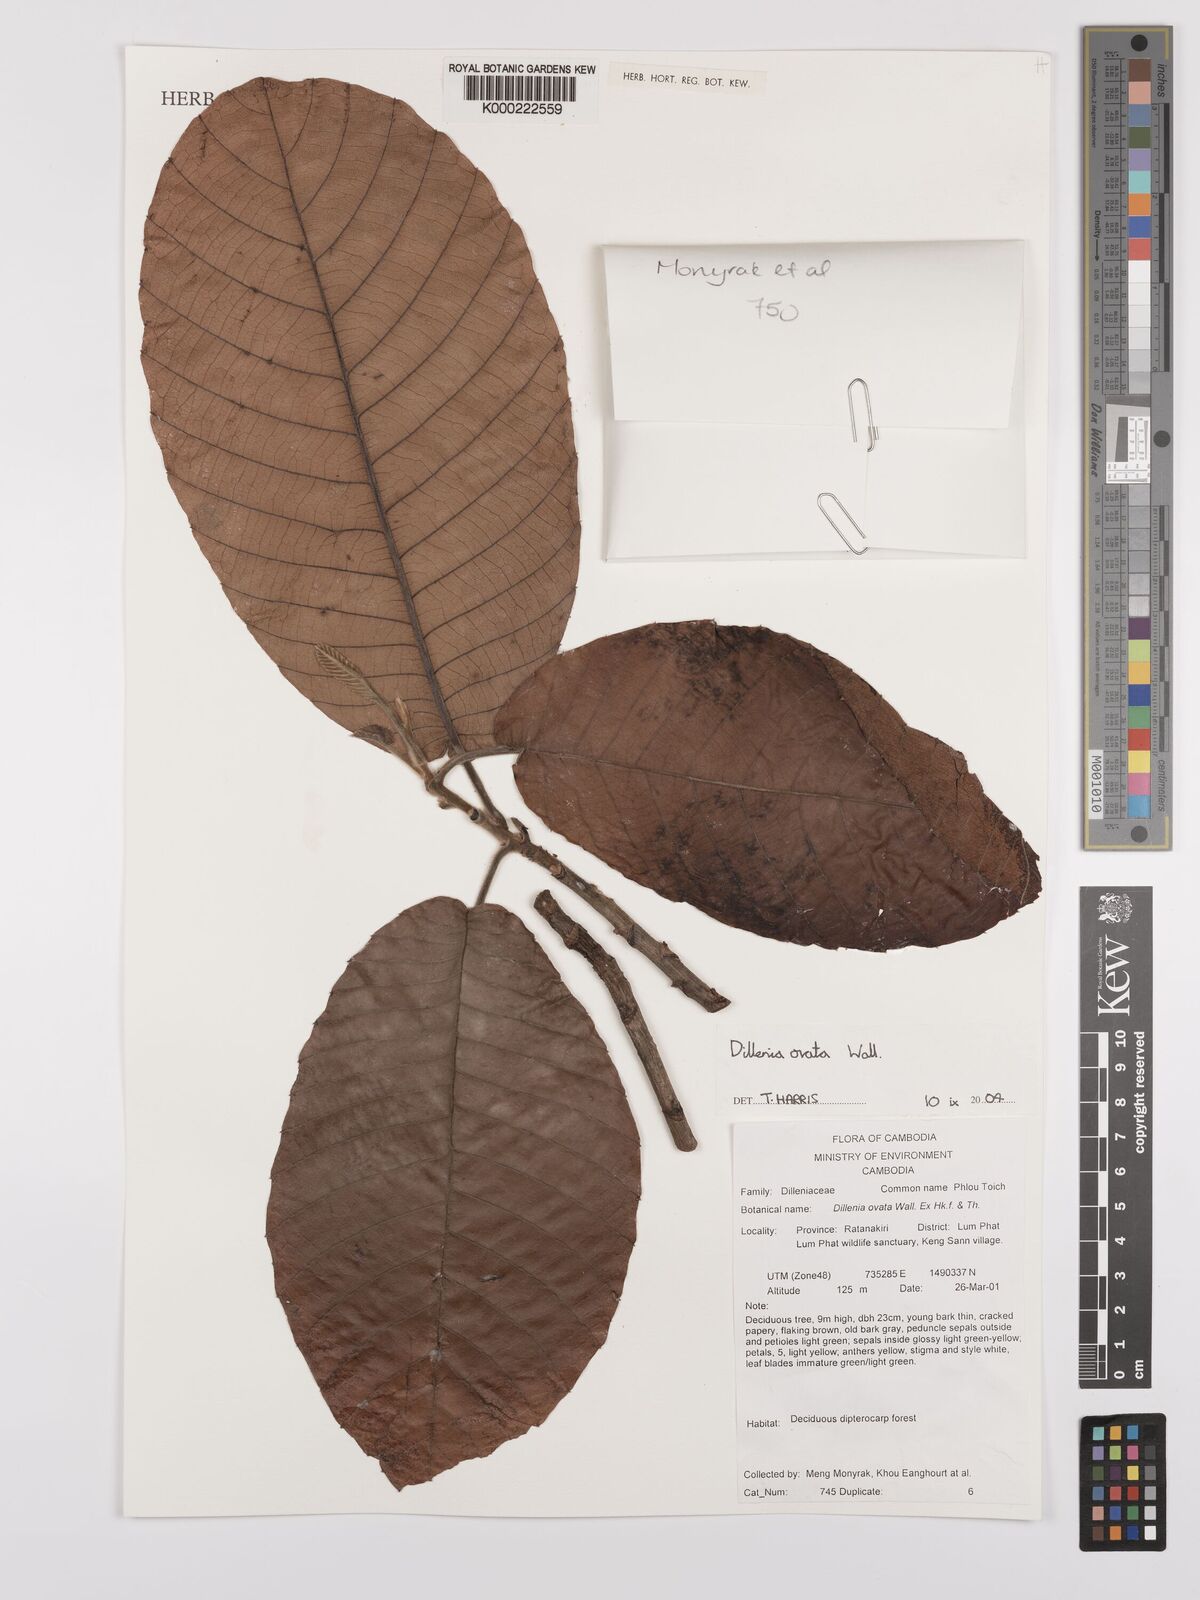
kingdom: Plantae
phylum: Tracheophyta
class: Magnoliopsida
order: Dilleniales
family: Dilleniaceae
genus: Dillenia
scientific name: Dillenia
